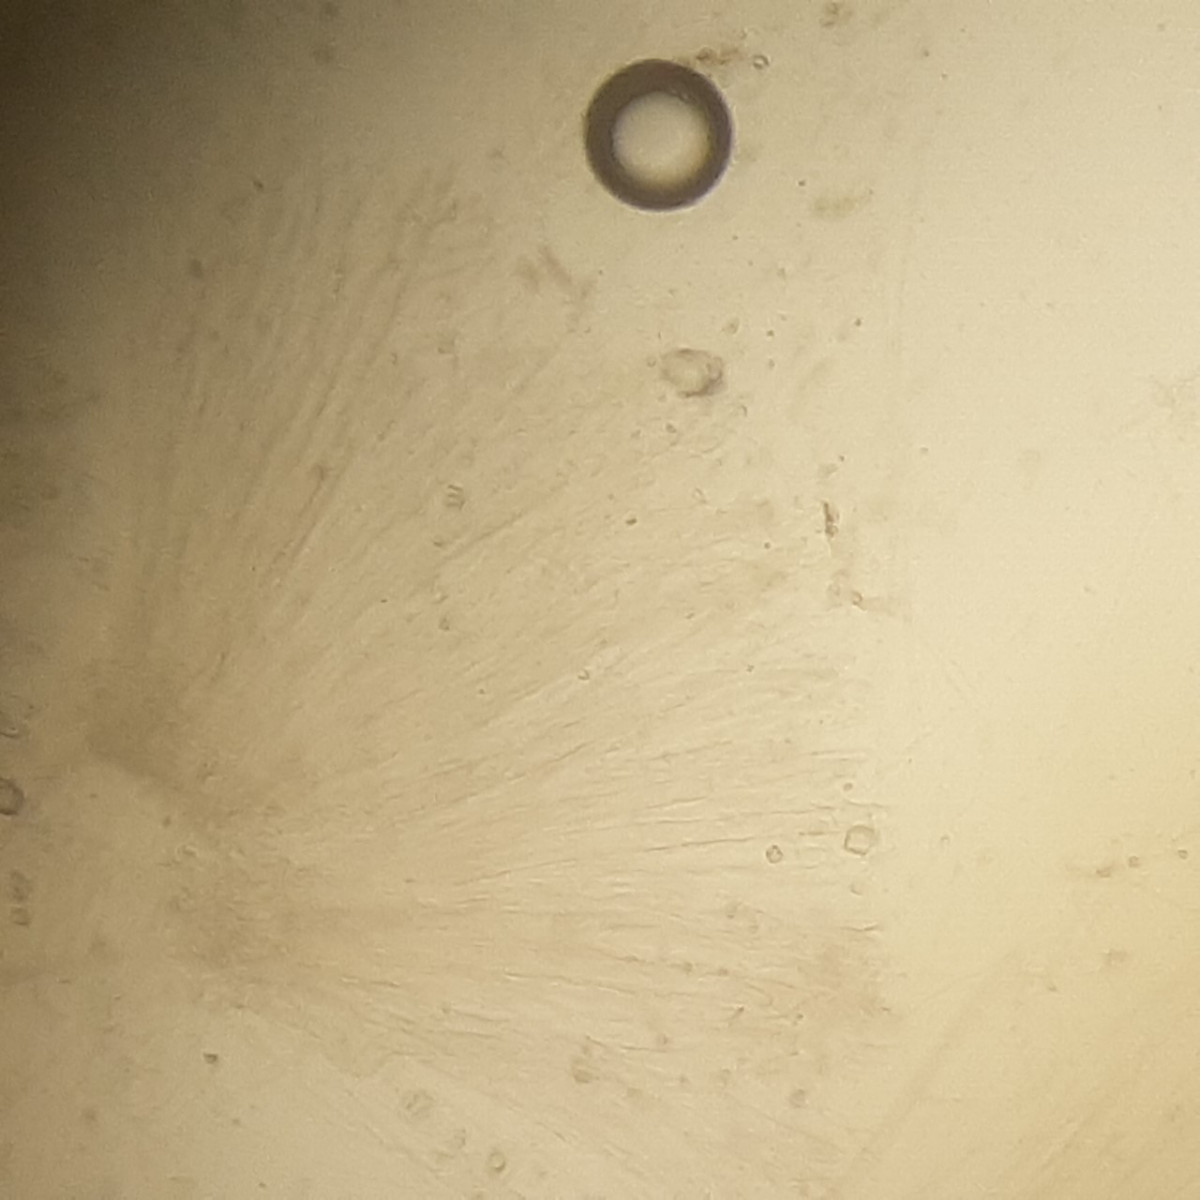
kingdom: Fungi
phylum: Ascomycota
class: Lecanoromycetes
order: Ostropales
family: Stictidaceae
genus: Stictis
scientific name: Stictis
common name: barkhul
